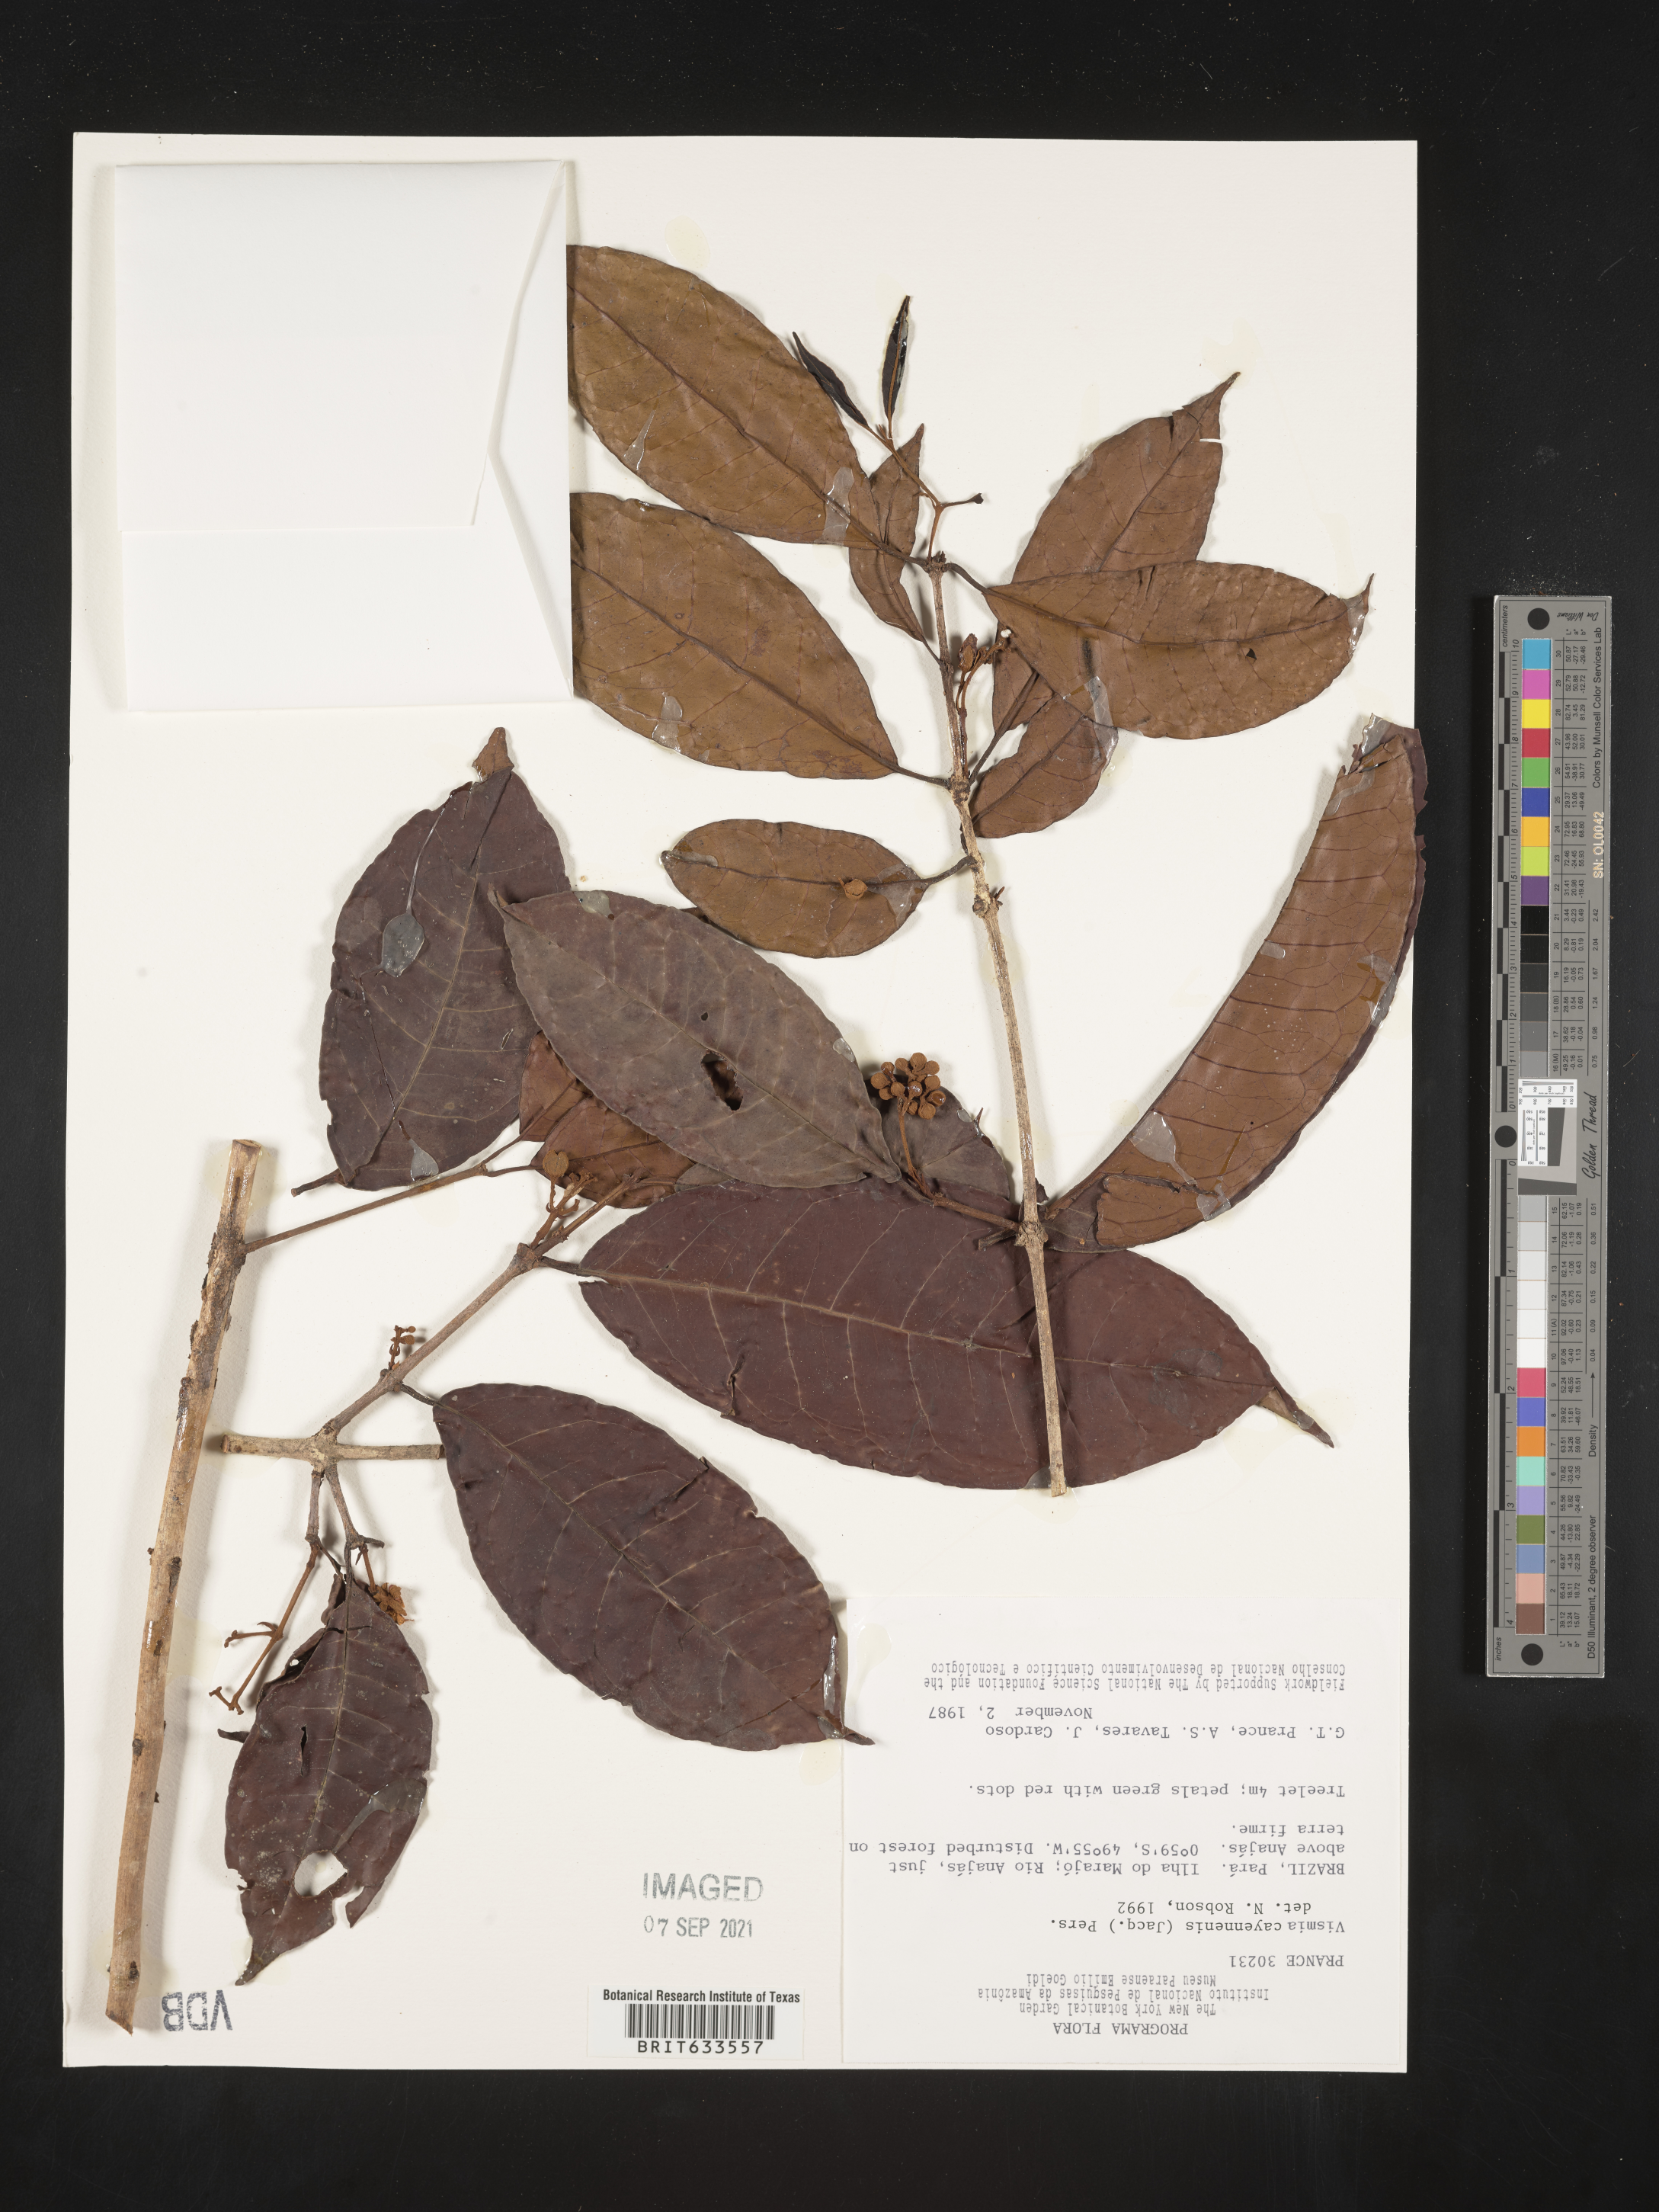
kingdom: Plantae
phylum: Tracheophyta
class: Magnoliopsida
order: Malpighiales
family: Hypericaceae
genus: Vismia
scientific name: Vismia
